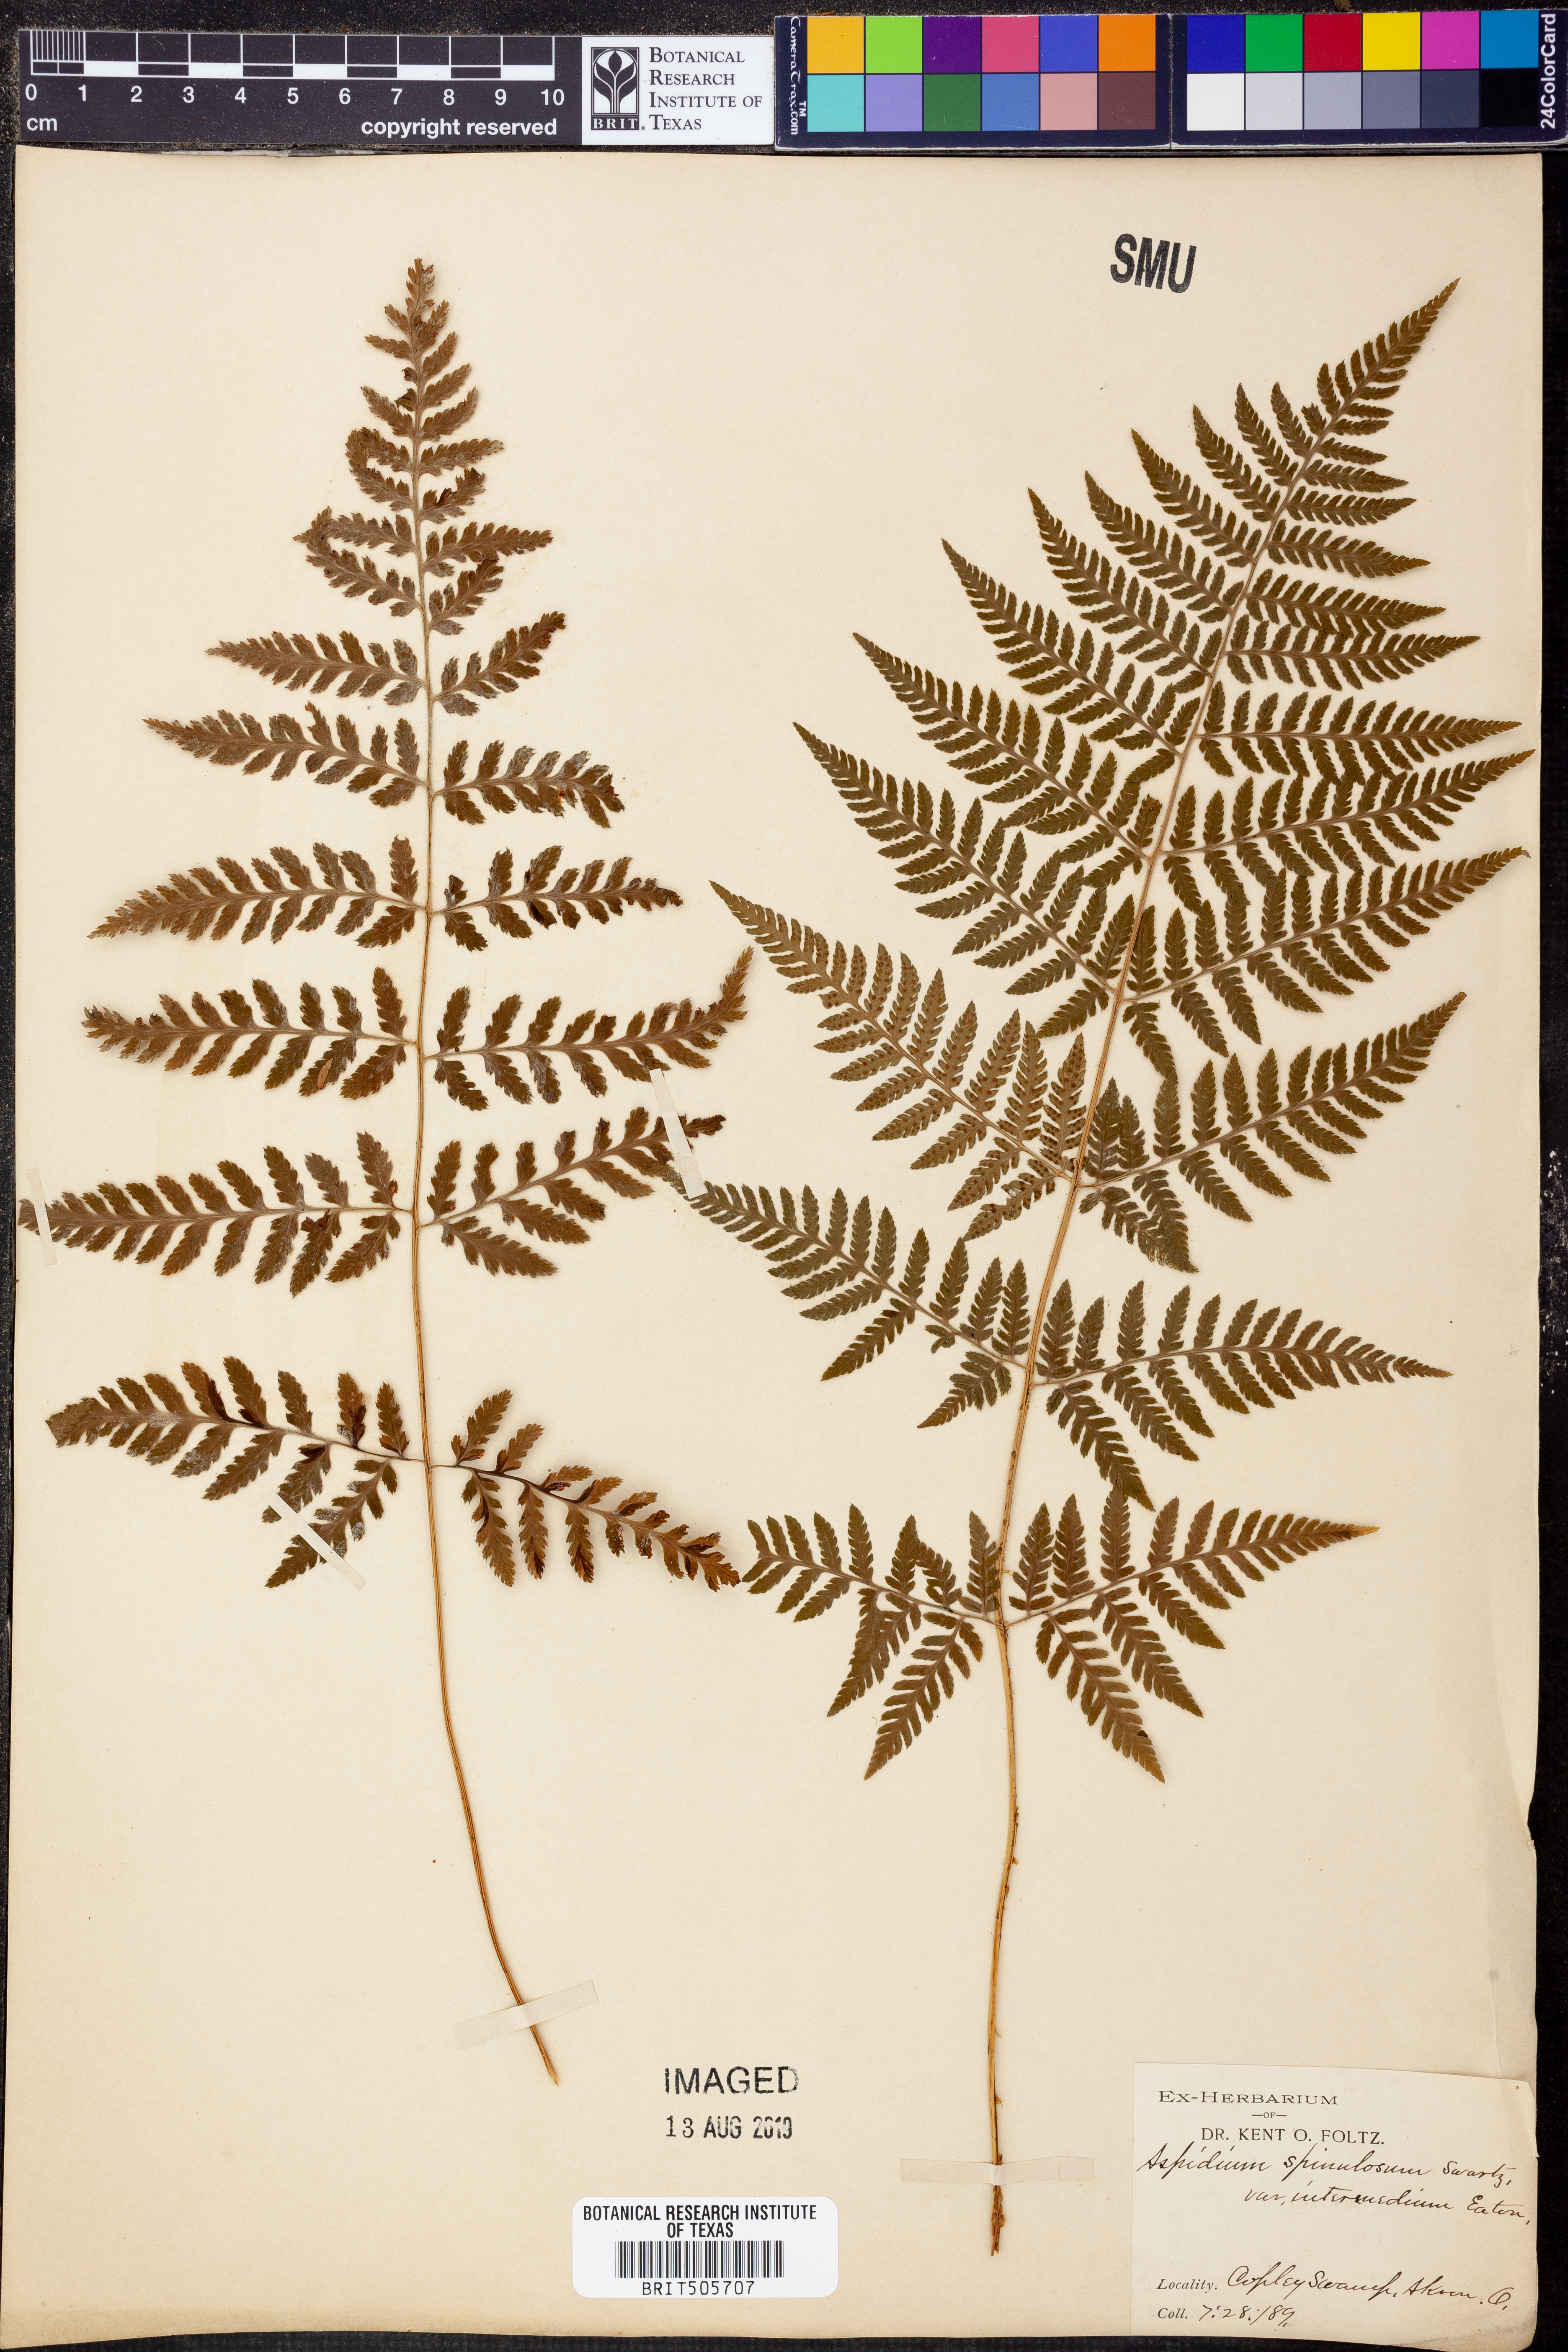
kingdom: Plantae
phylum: Tracheophyta
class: Polypodiopsida
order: Polypodiales
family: Dryopteridaceae
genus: Dryopteris
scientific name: Dryopteris intermedia
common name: Evergreen wood fern
